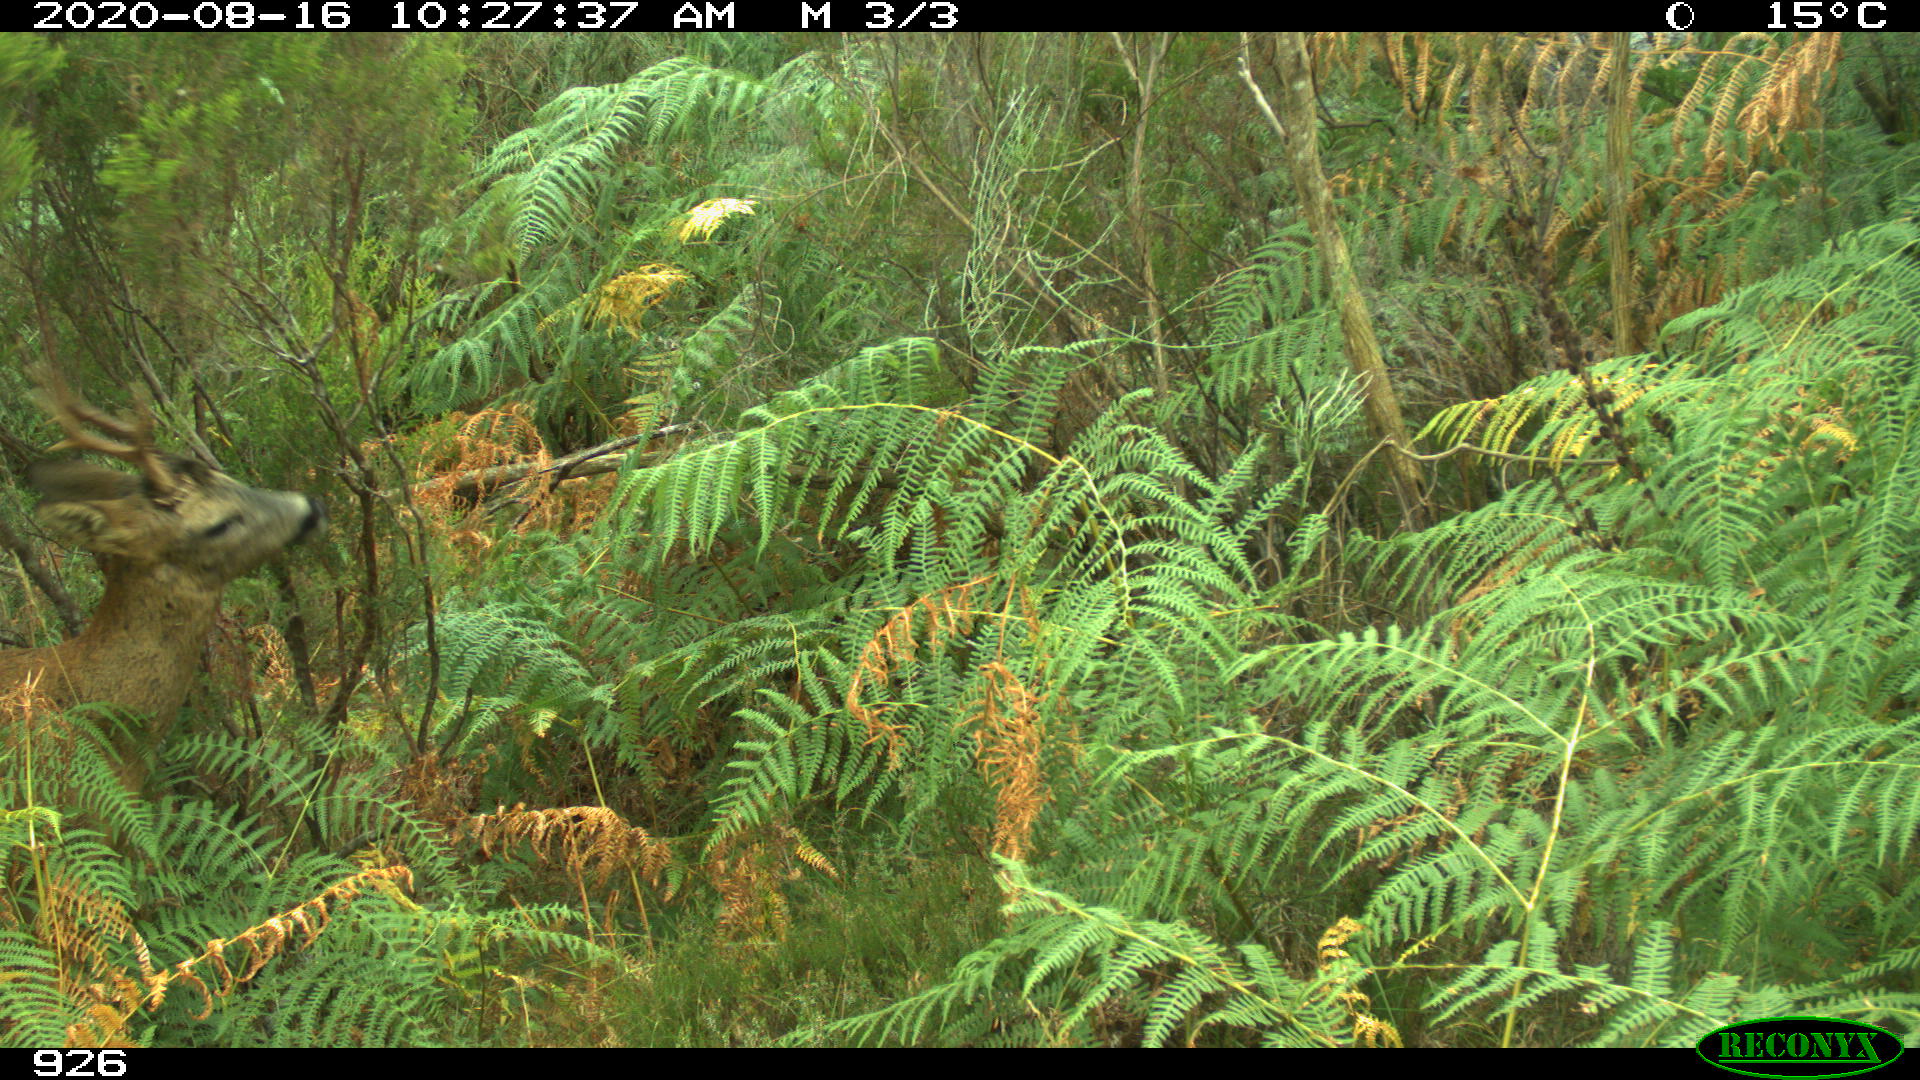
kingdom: Animalia
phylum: Chordata
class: Mammalia
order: Artiodactyla
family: Cervidae
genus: Capreolus
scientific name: Capreolus capreolus
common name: Western roe deer
